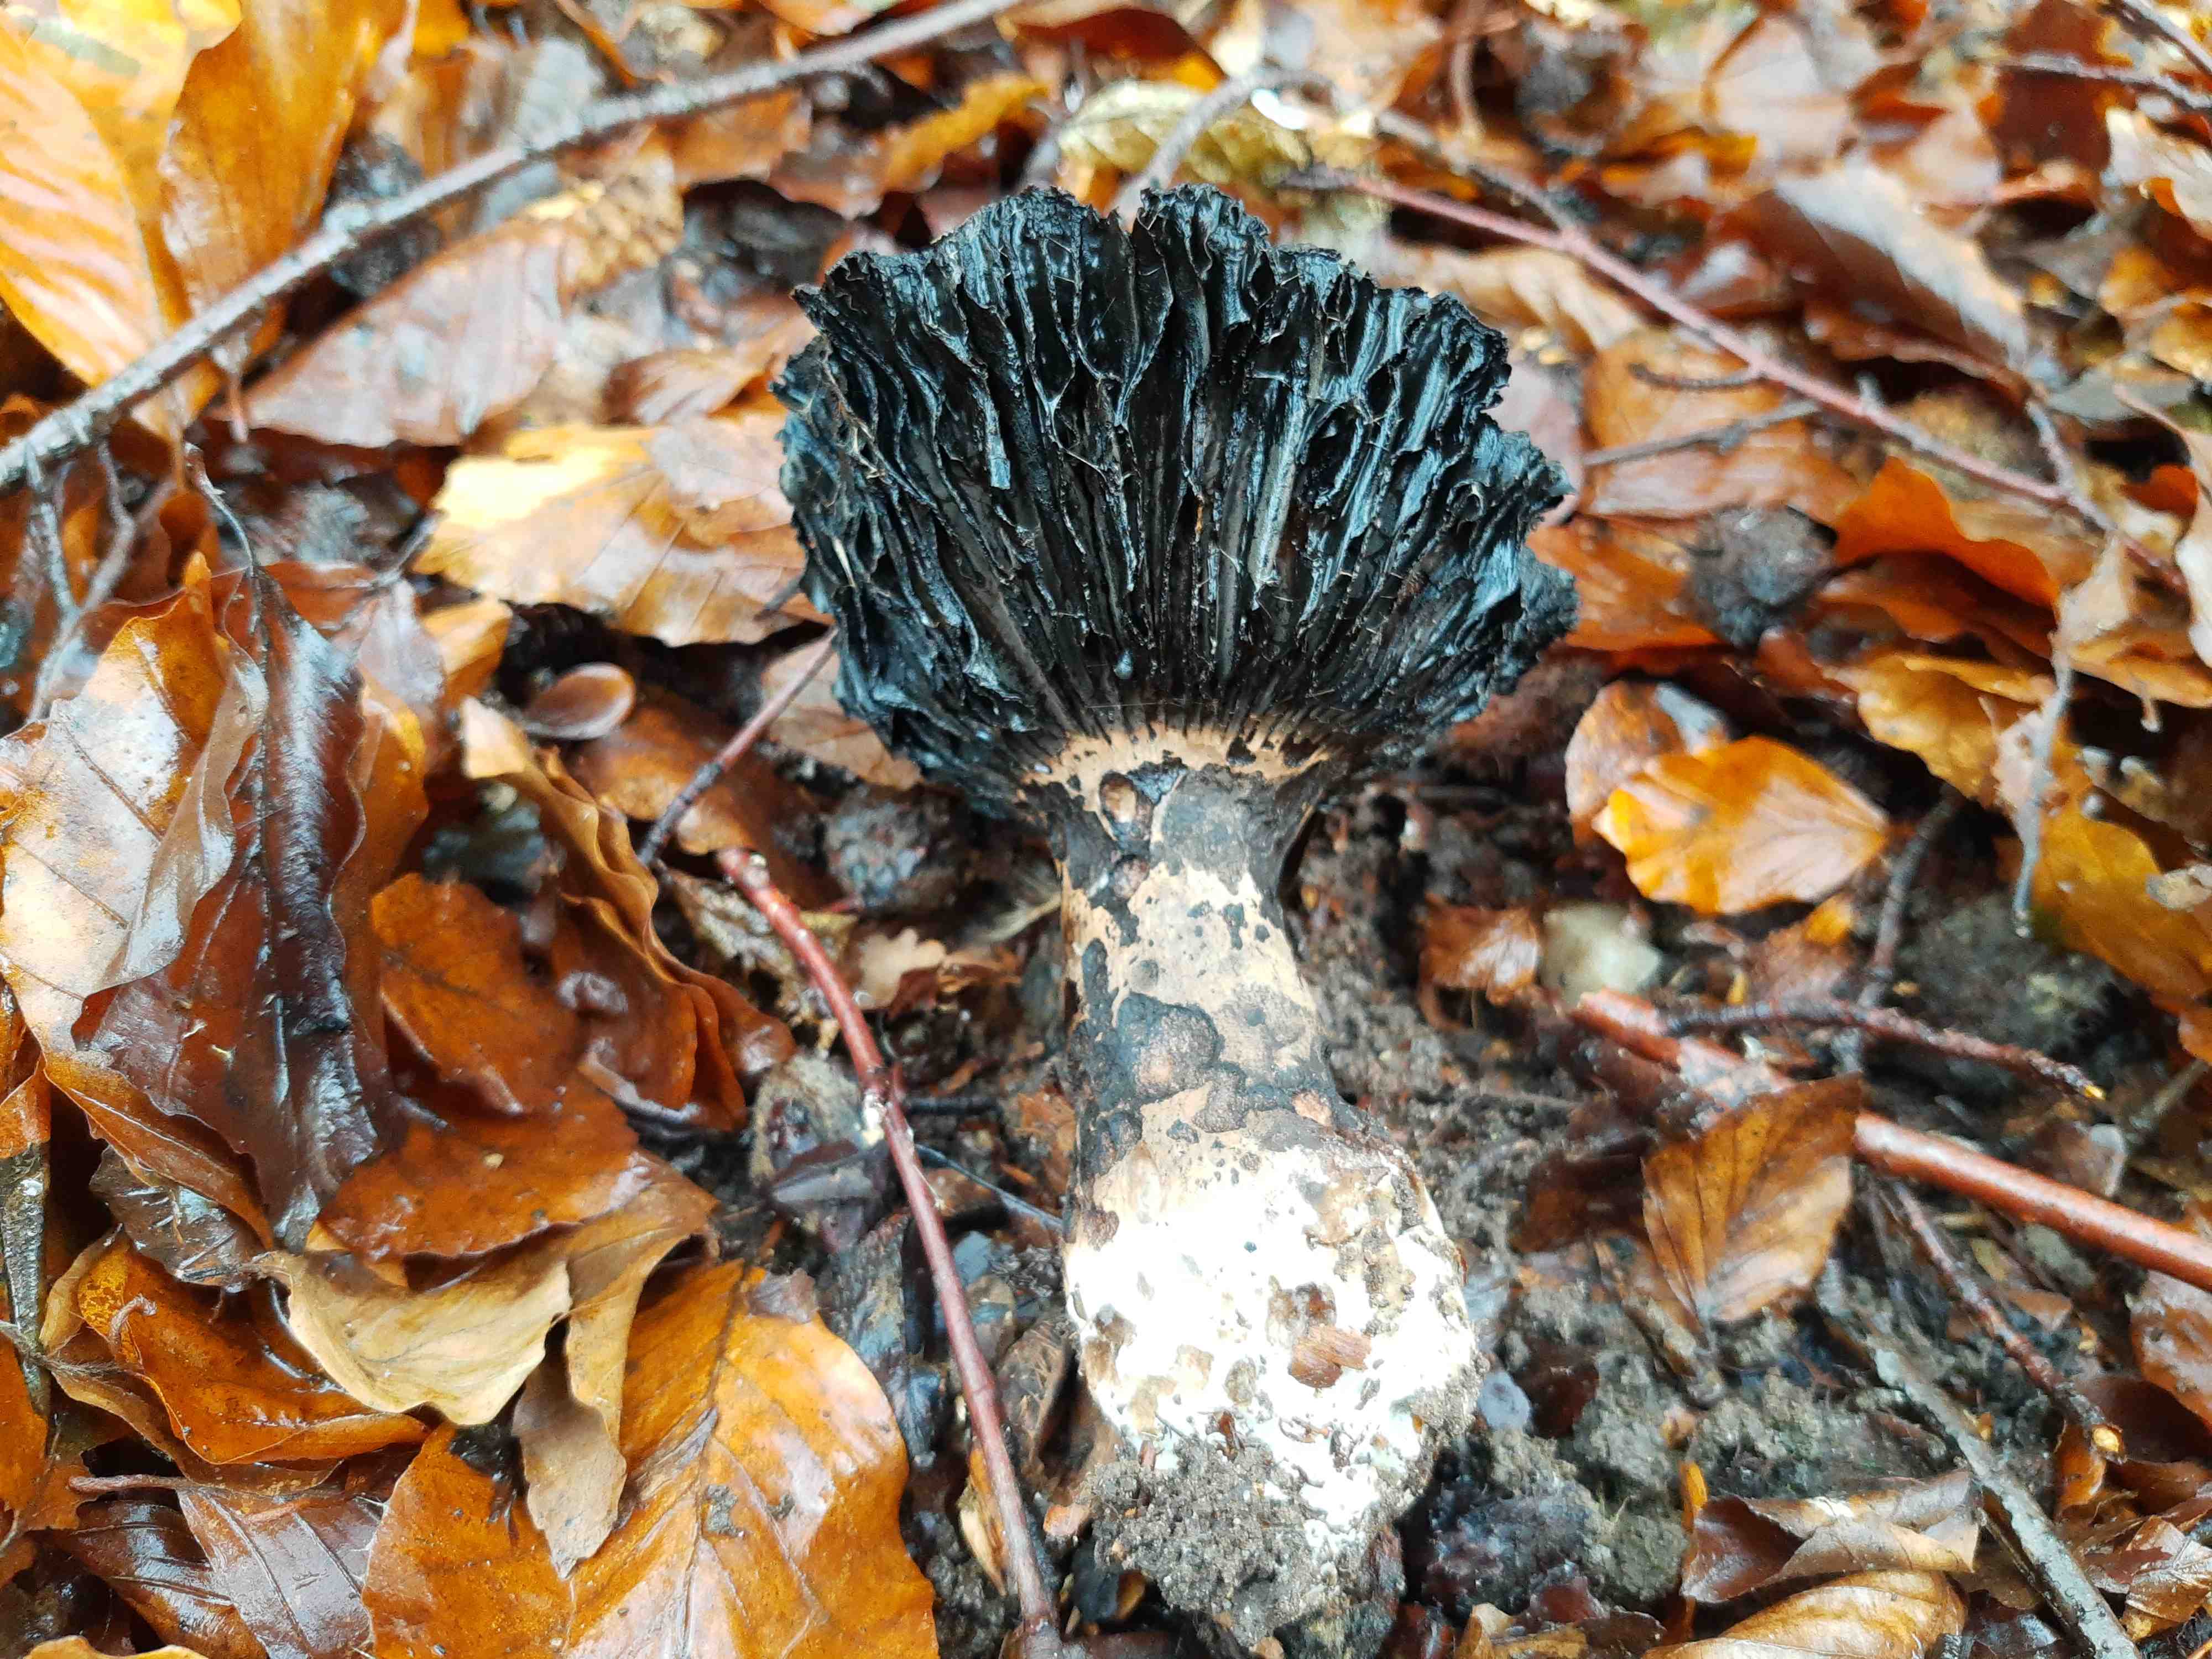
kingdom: Fungi
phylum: Basidiomycota
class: Agaricomycetes
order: Russulales
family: Russulaceae
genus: Russula
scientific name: Russula adusta
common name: sværtende skørhat
